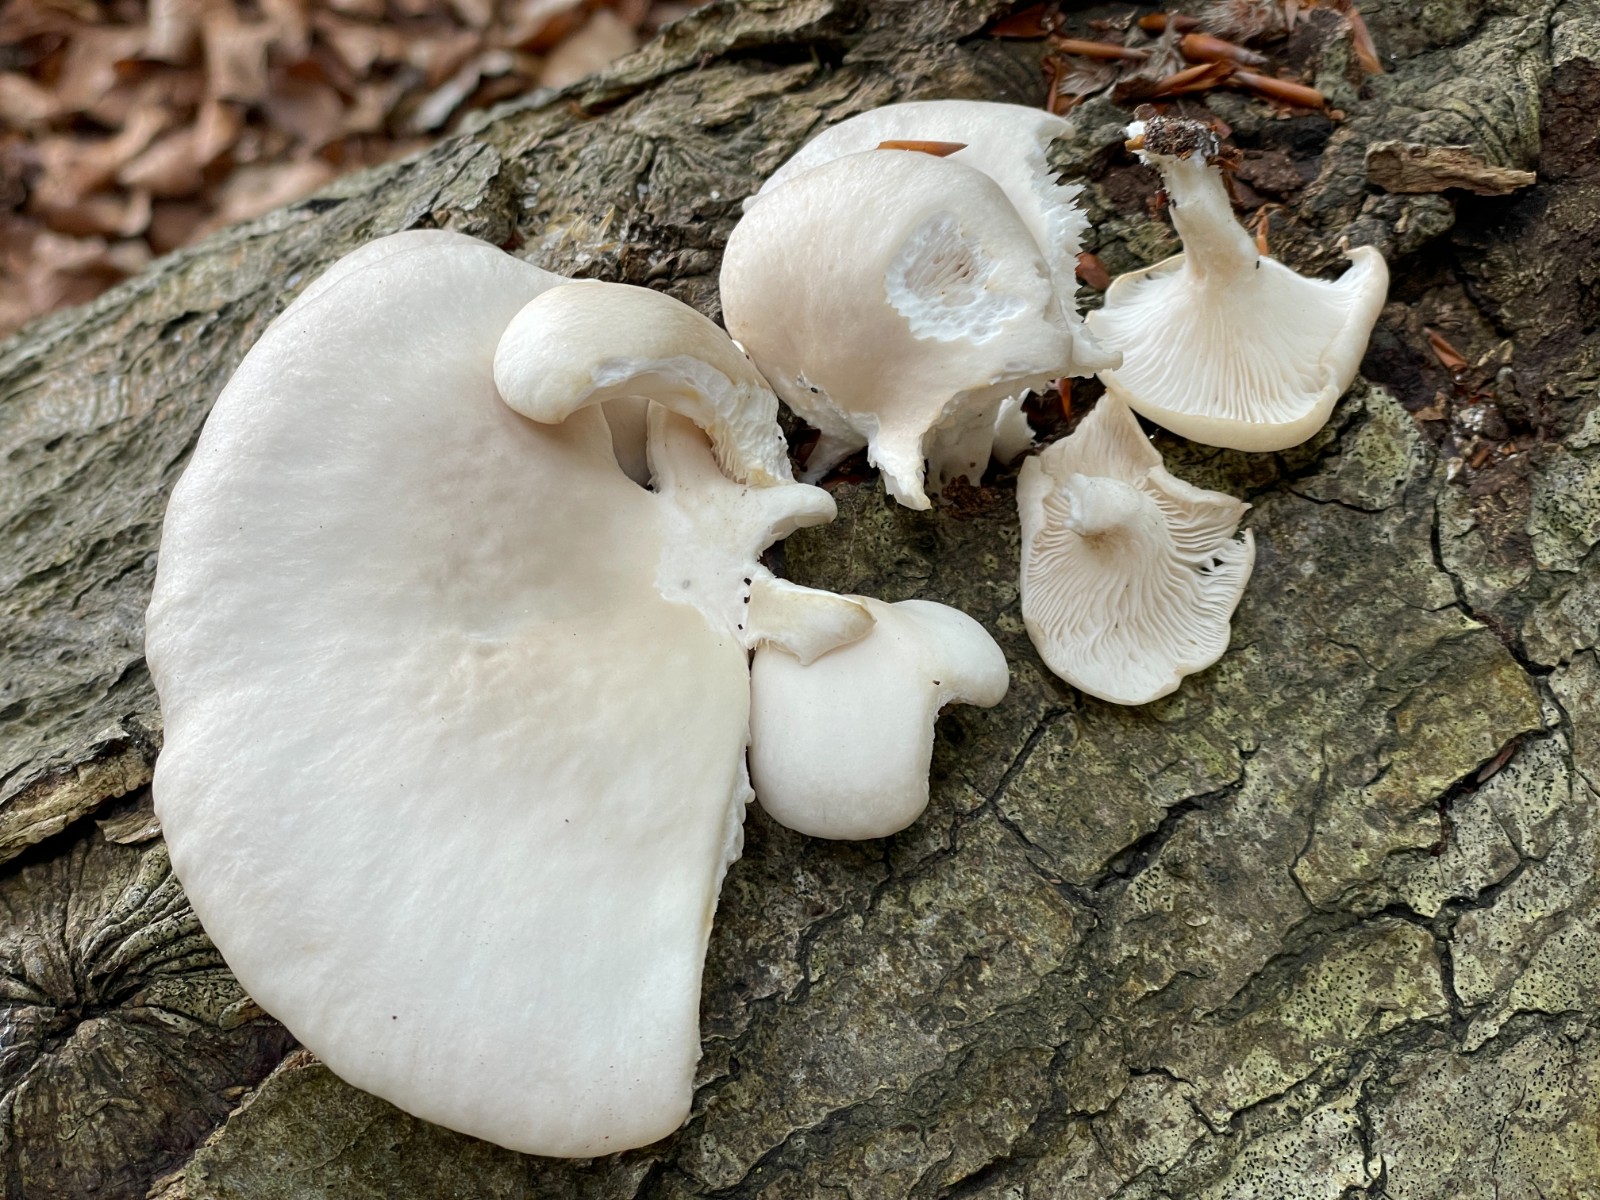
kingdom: Fungi
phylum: Basidiomycota
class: Agaricomycetes
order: Agaricales
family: Pleurotaceae
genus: Pleurotus
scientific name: Pleurotus pulmonarius
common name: sommer-østershat
